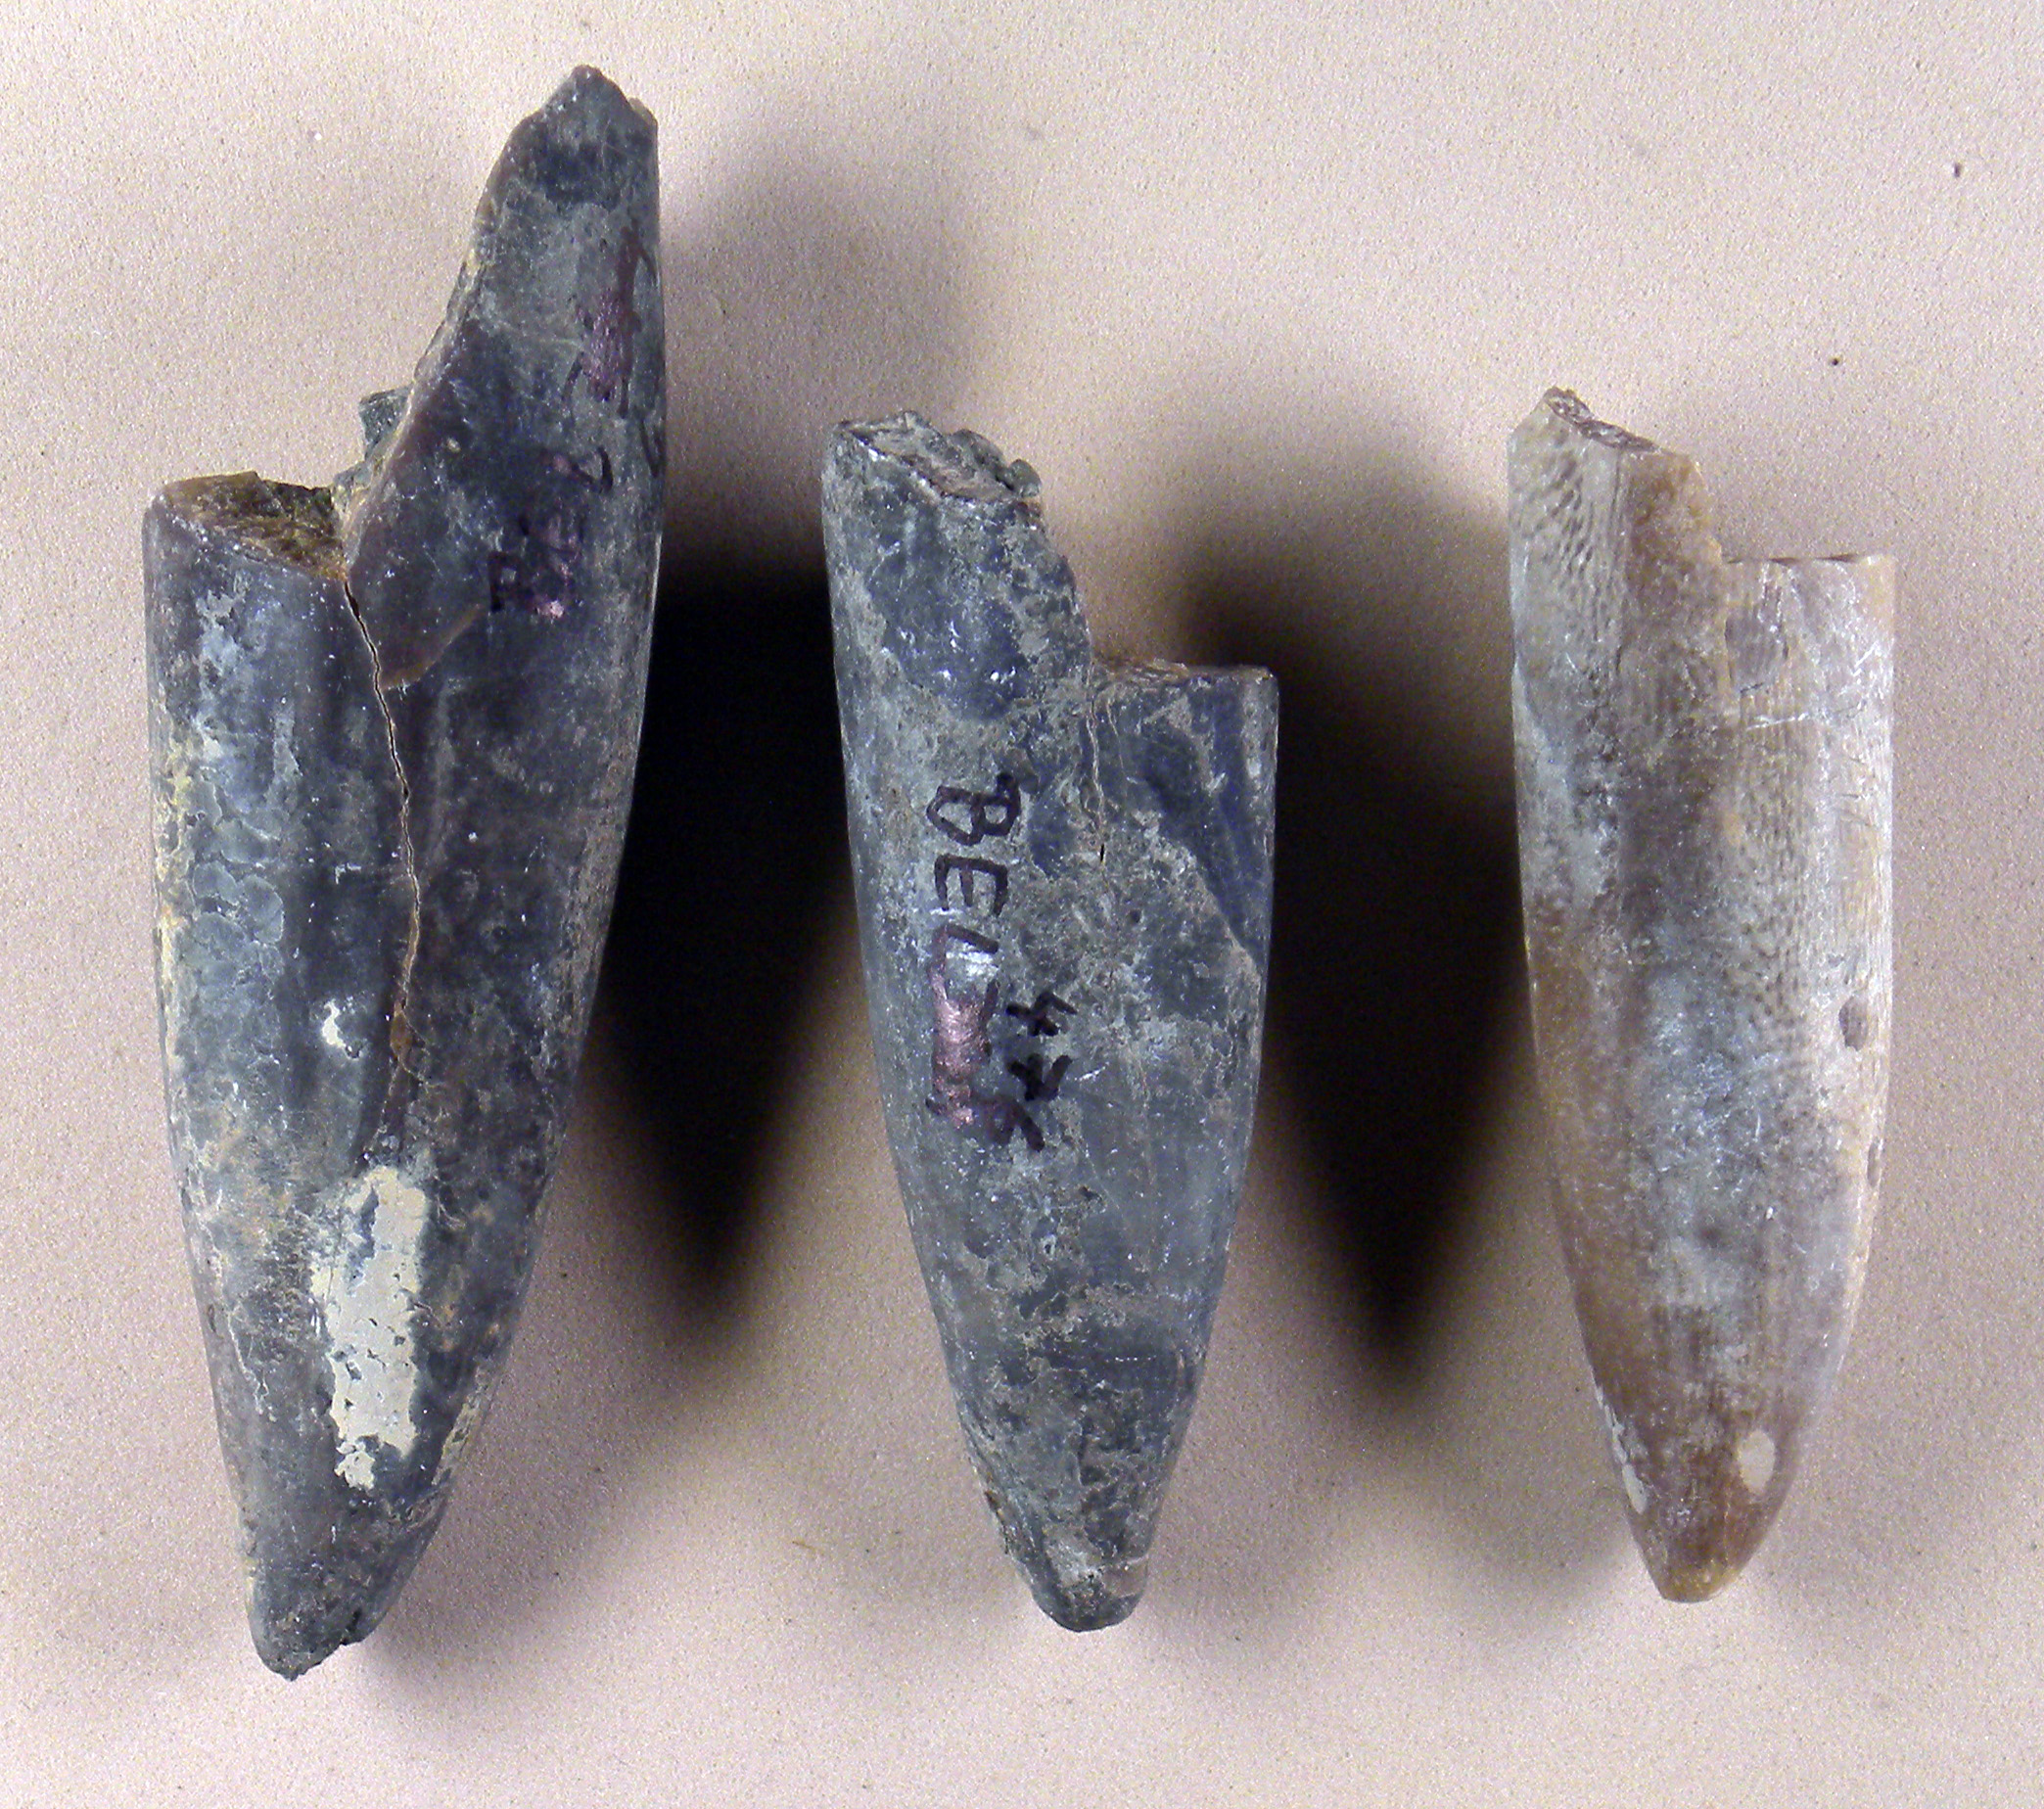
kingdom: Animalia
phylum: Mollusca
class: Cephalopoda
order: Belemnitida
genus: Arcobelus
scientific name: Arcobelus
